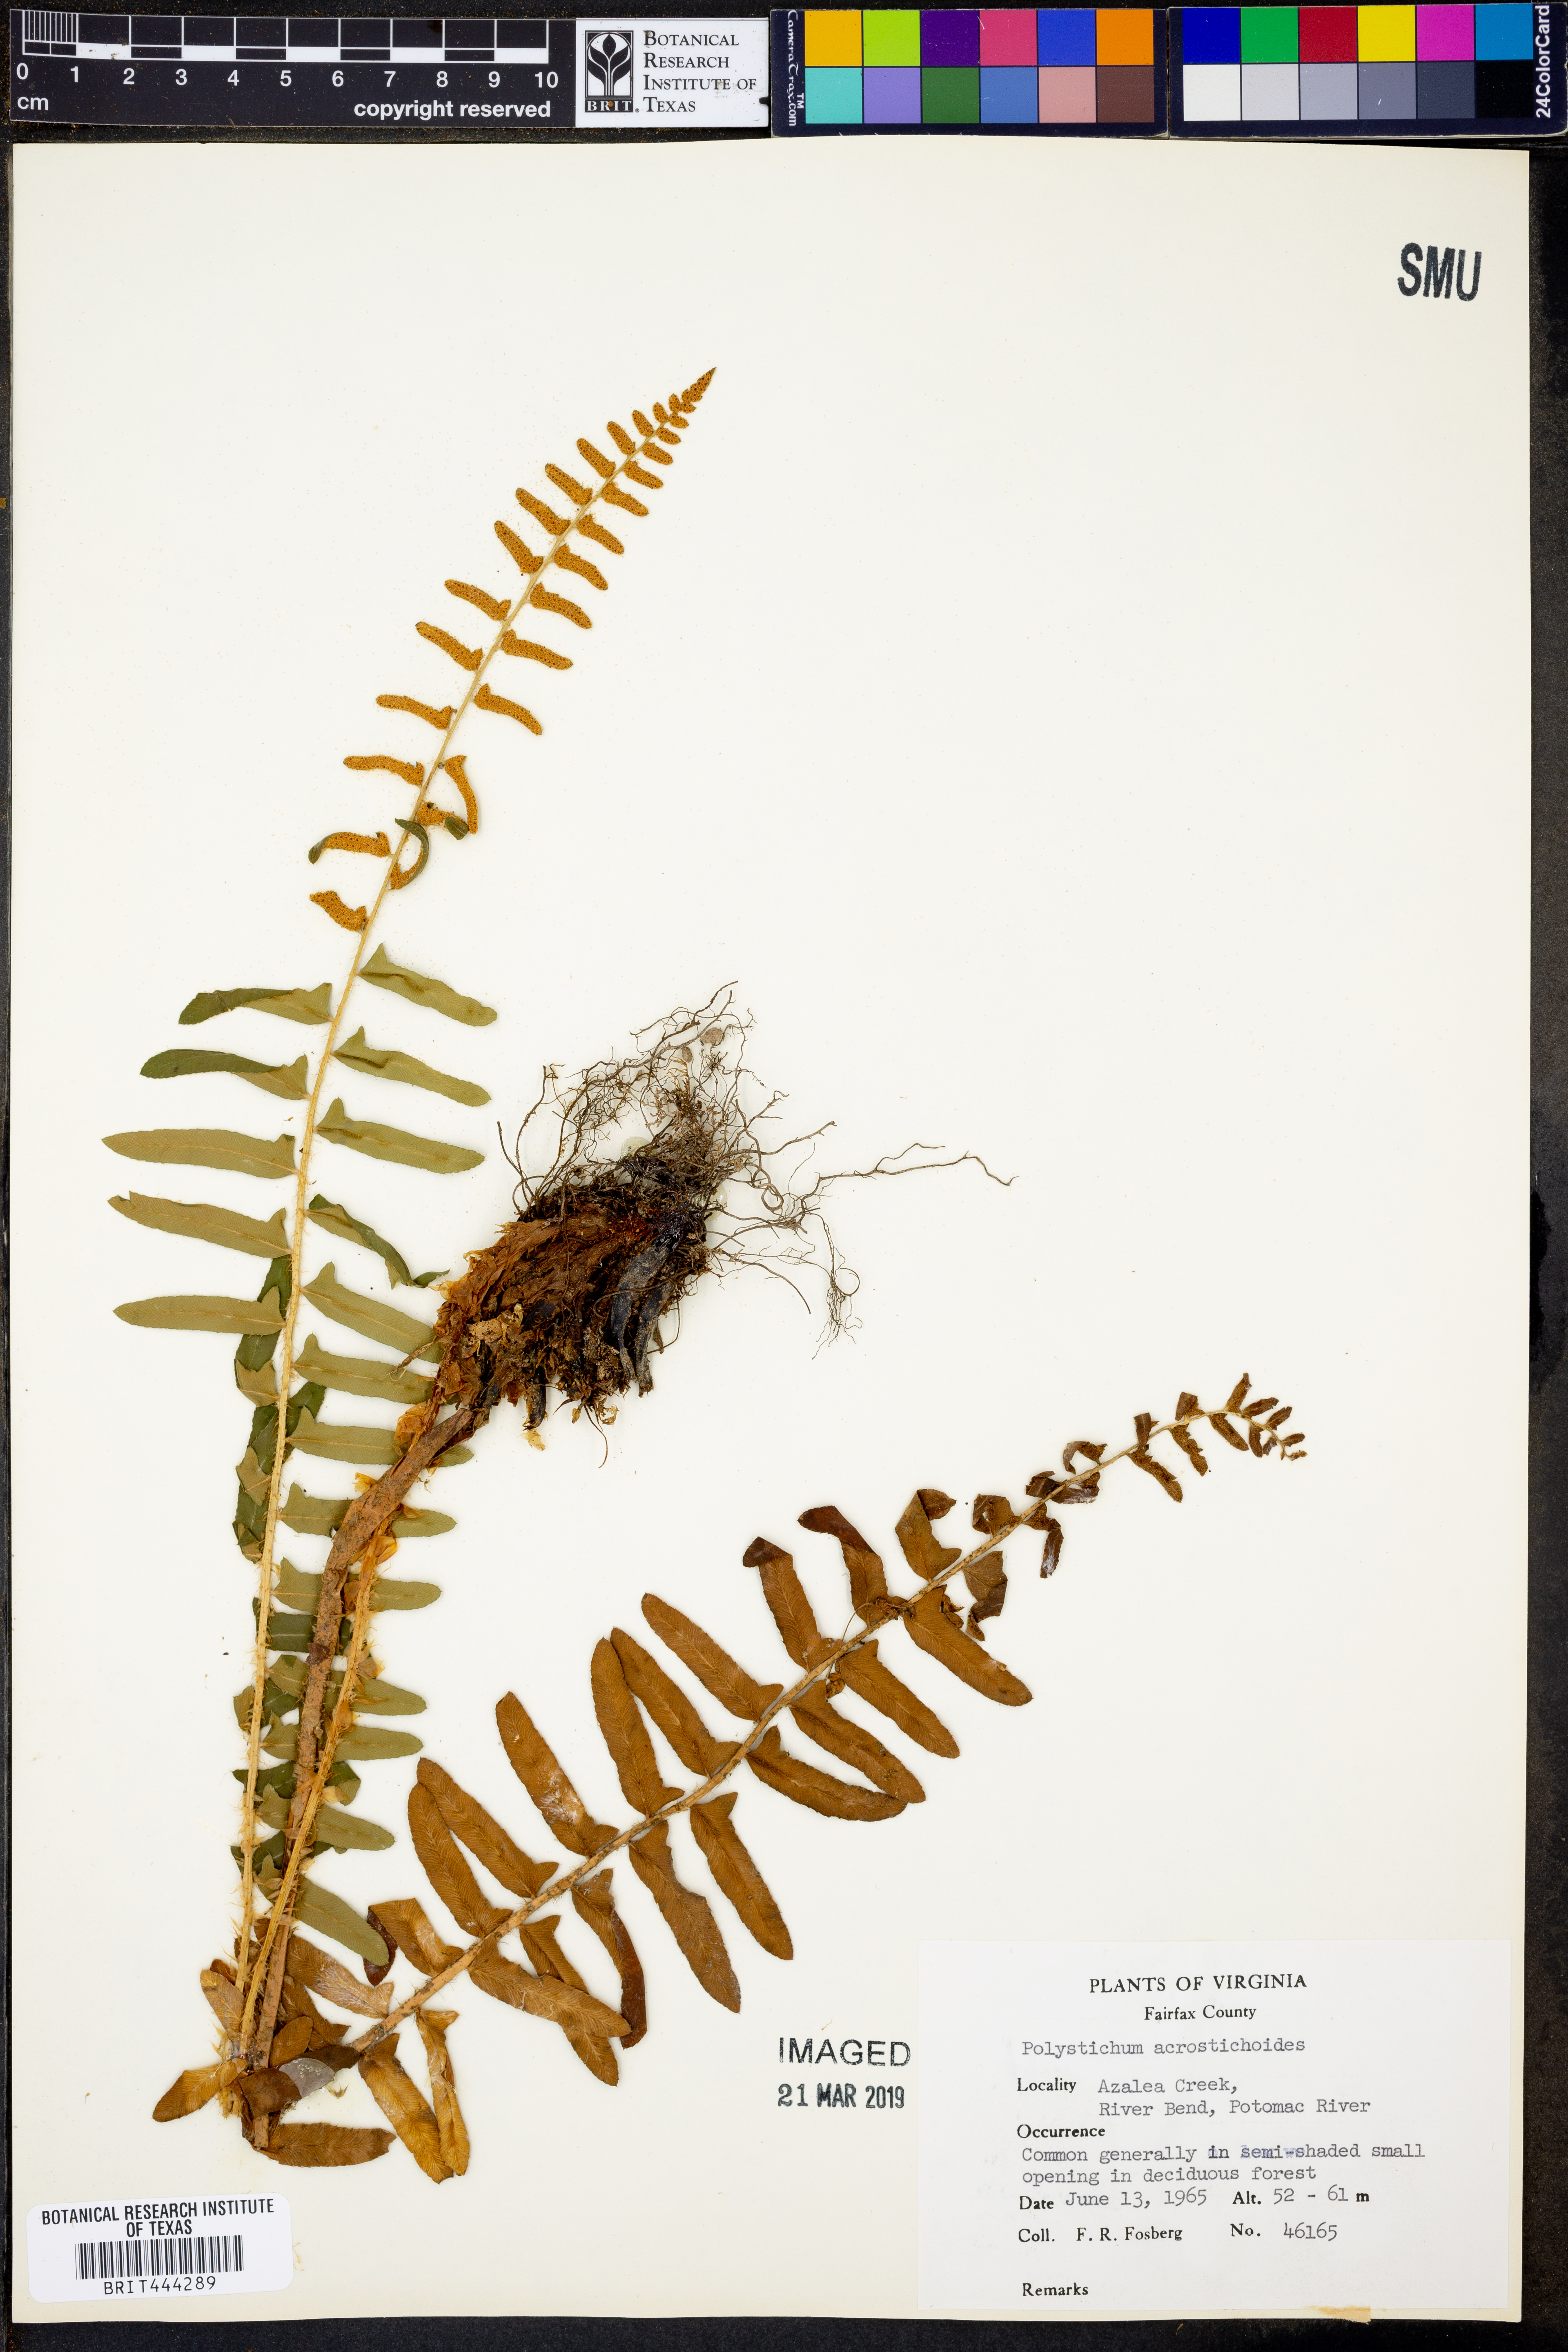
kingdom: Plantae
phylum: Tracheophyta
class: Polypodiopsida
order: Polypodiales
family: Dryopteridaceae
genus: Polystichum
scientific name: Polystichum acrostichoides
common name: Christmas fern
